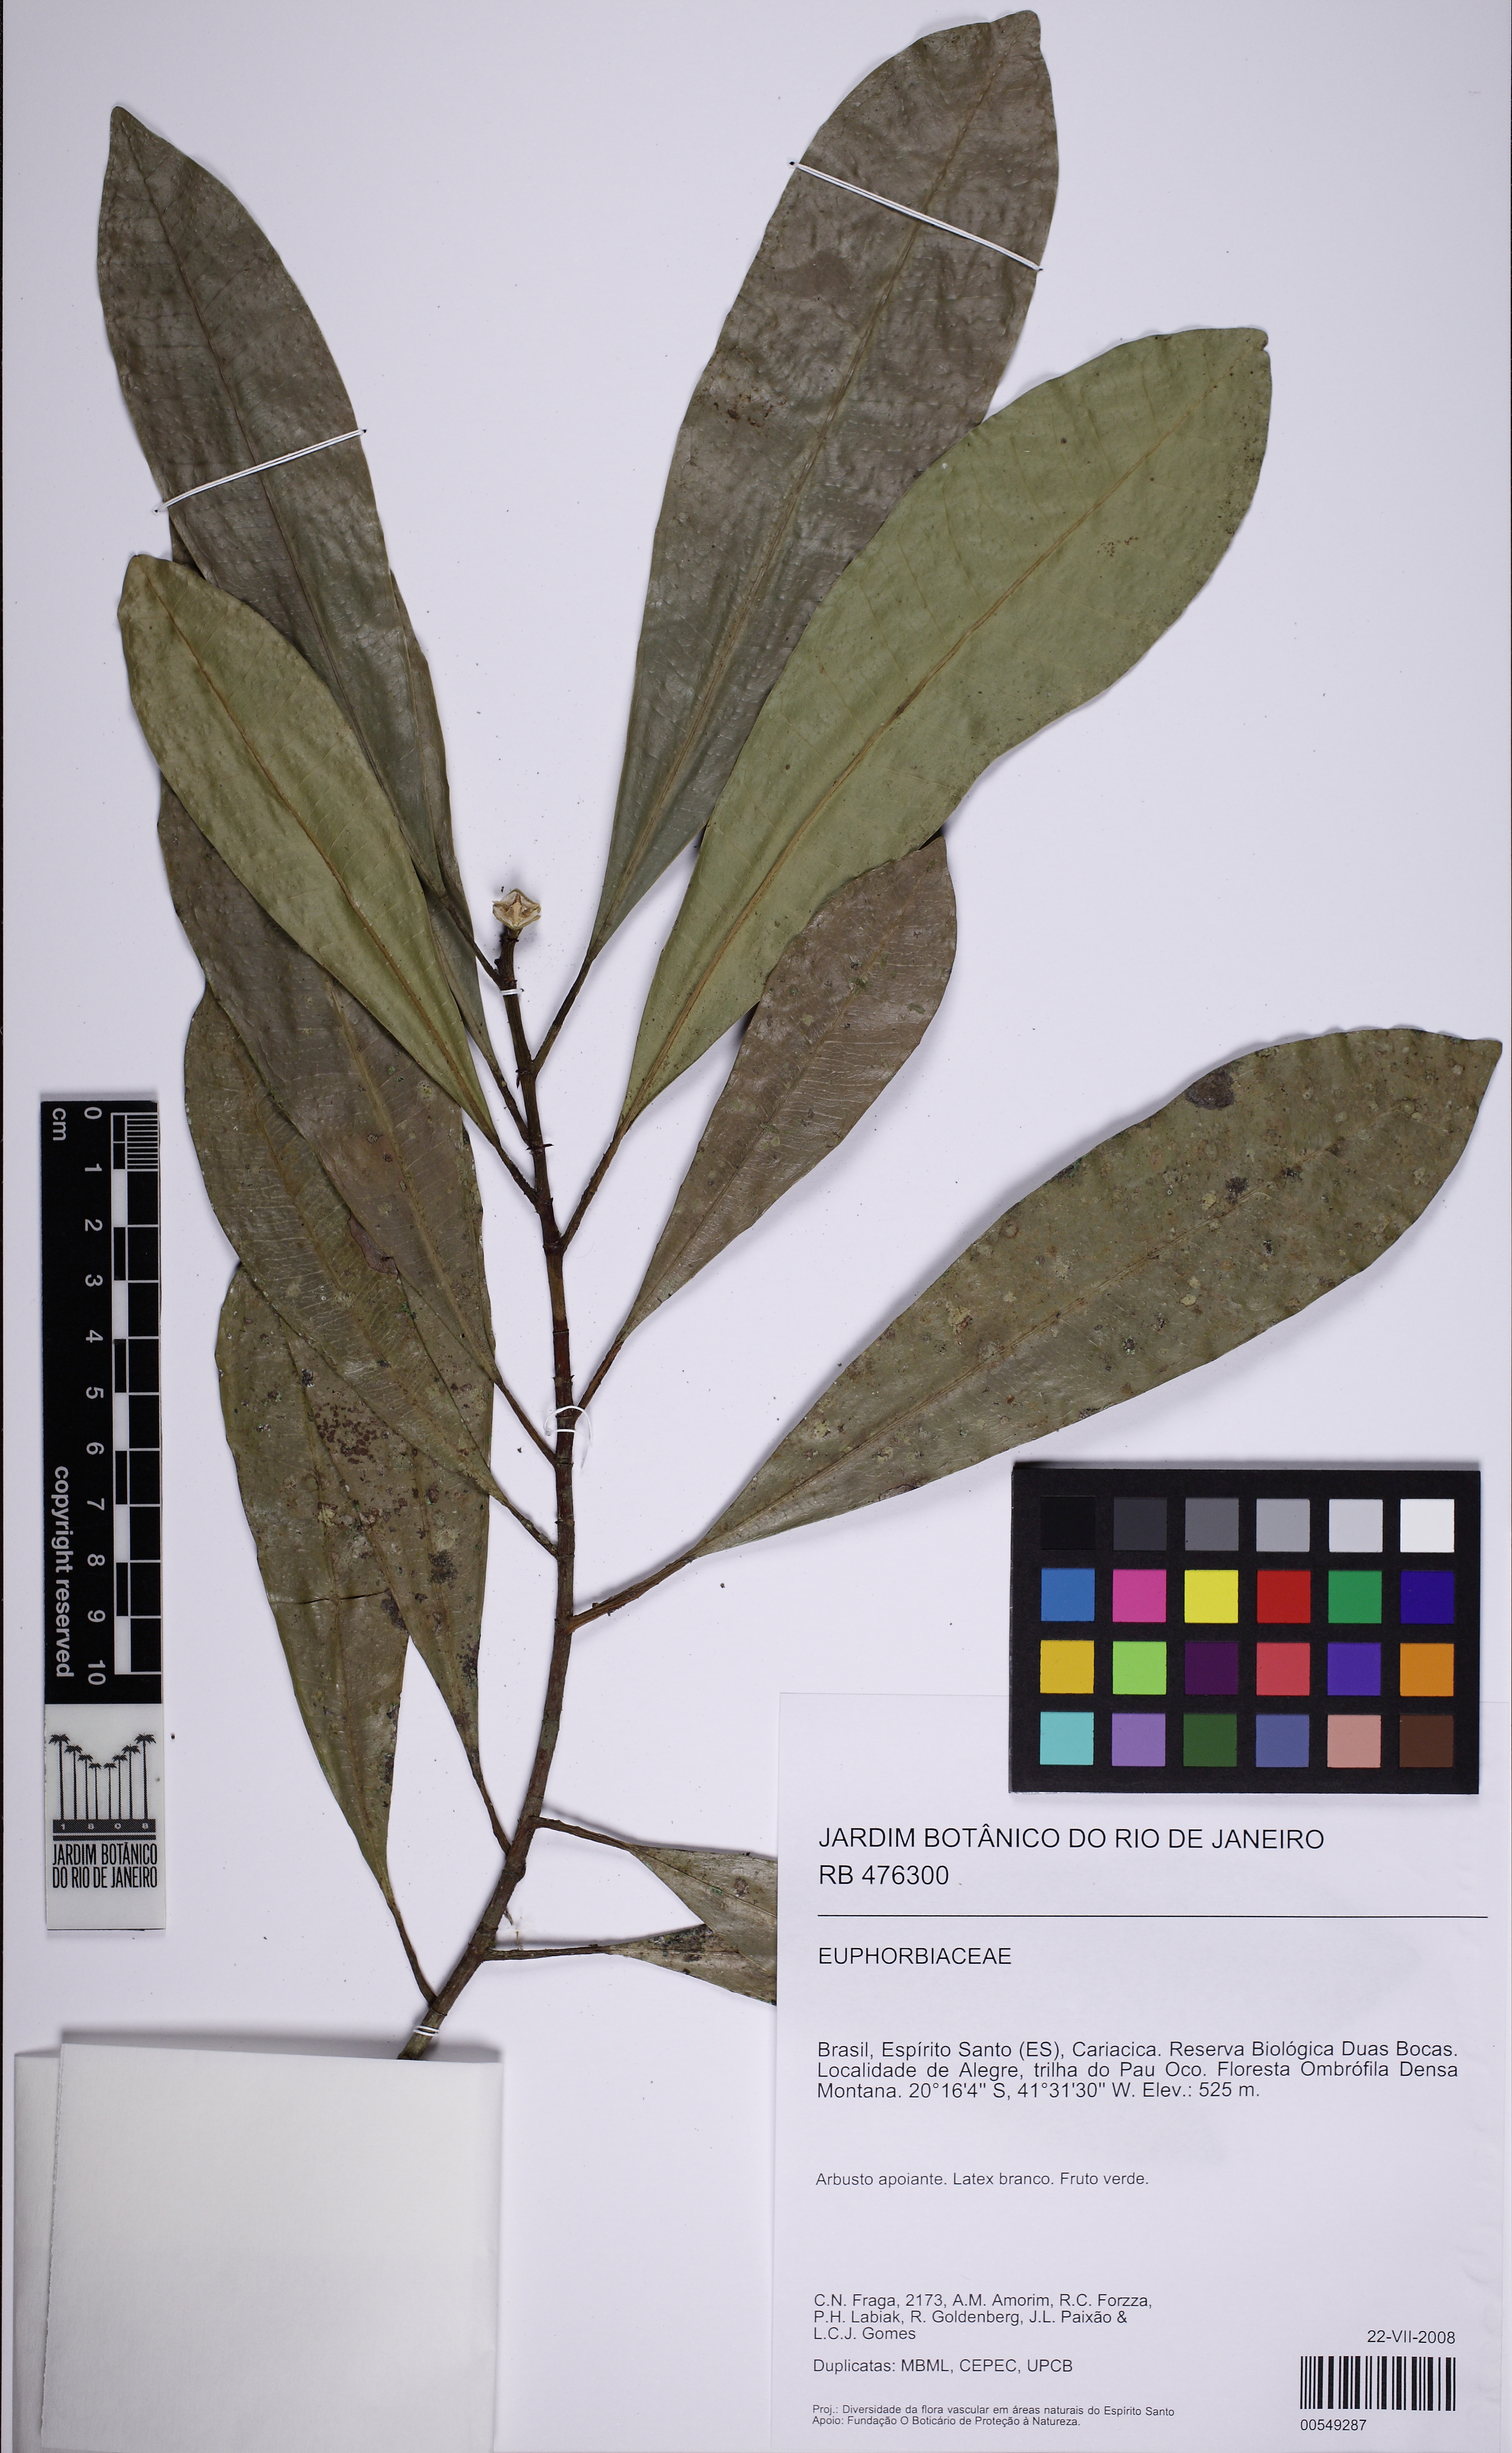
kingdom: Plantae
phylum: Tracheophyta
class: Magnoliopsida
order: Malpighiales
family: Euphorbiaceae
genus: Algernonia
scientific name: Algernonia
